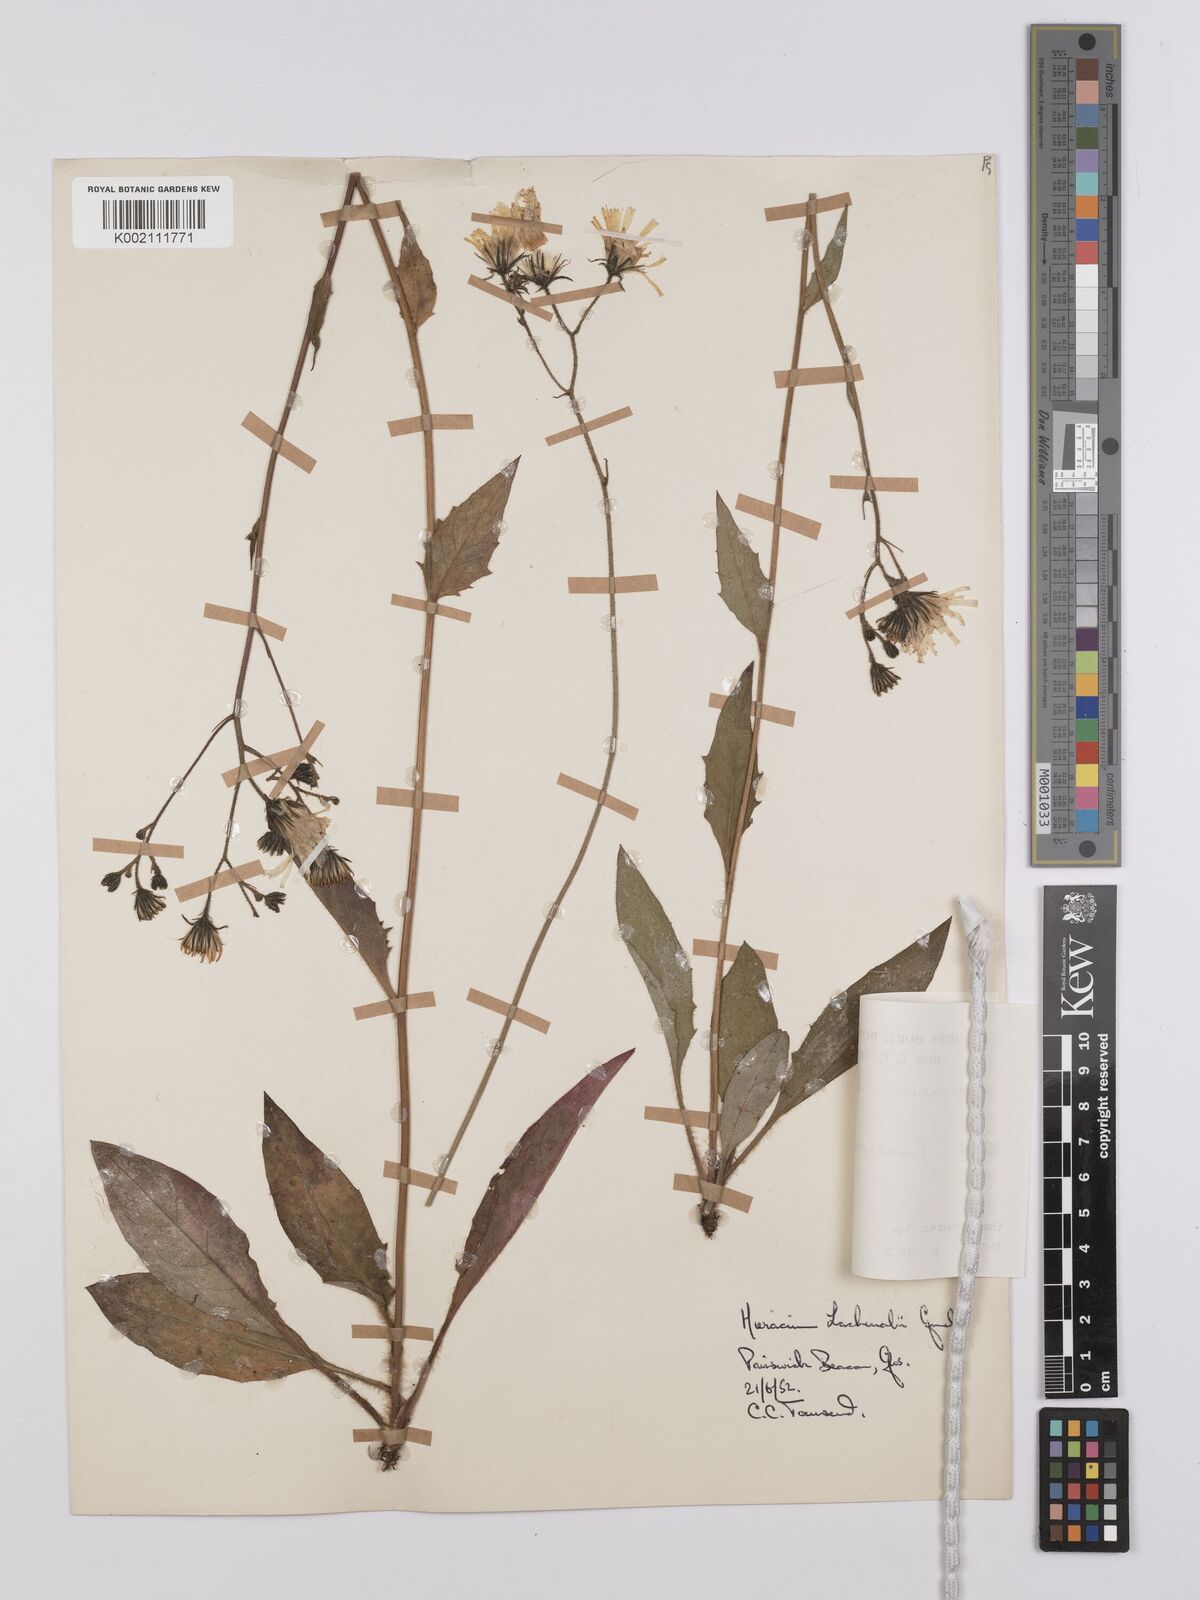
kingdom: Plantae
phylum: Tracheophyta
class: Magnoliopsida
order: Asterales
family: Asteraceae
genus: Hieracium
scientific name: Hieracium lachenalii
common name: Common hawkweed
